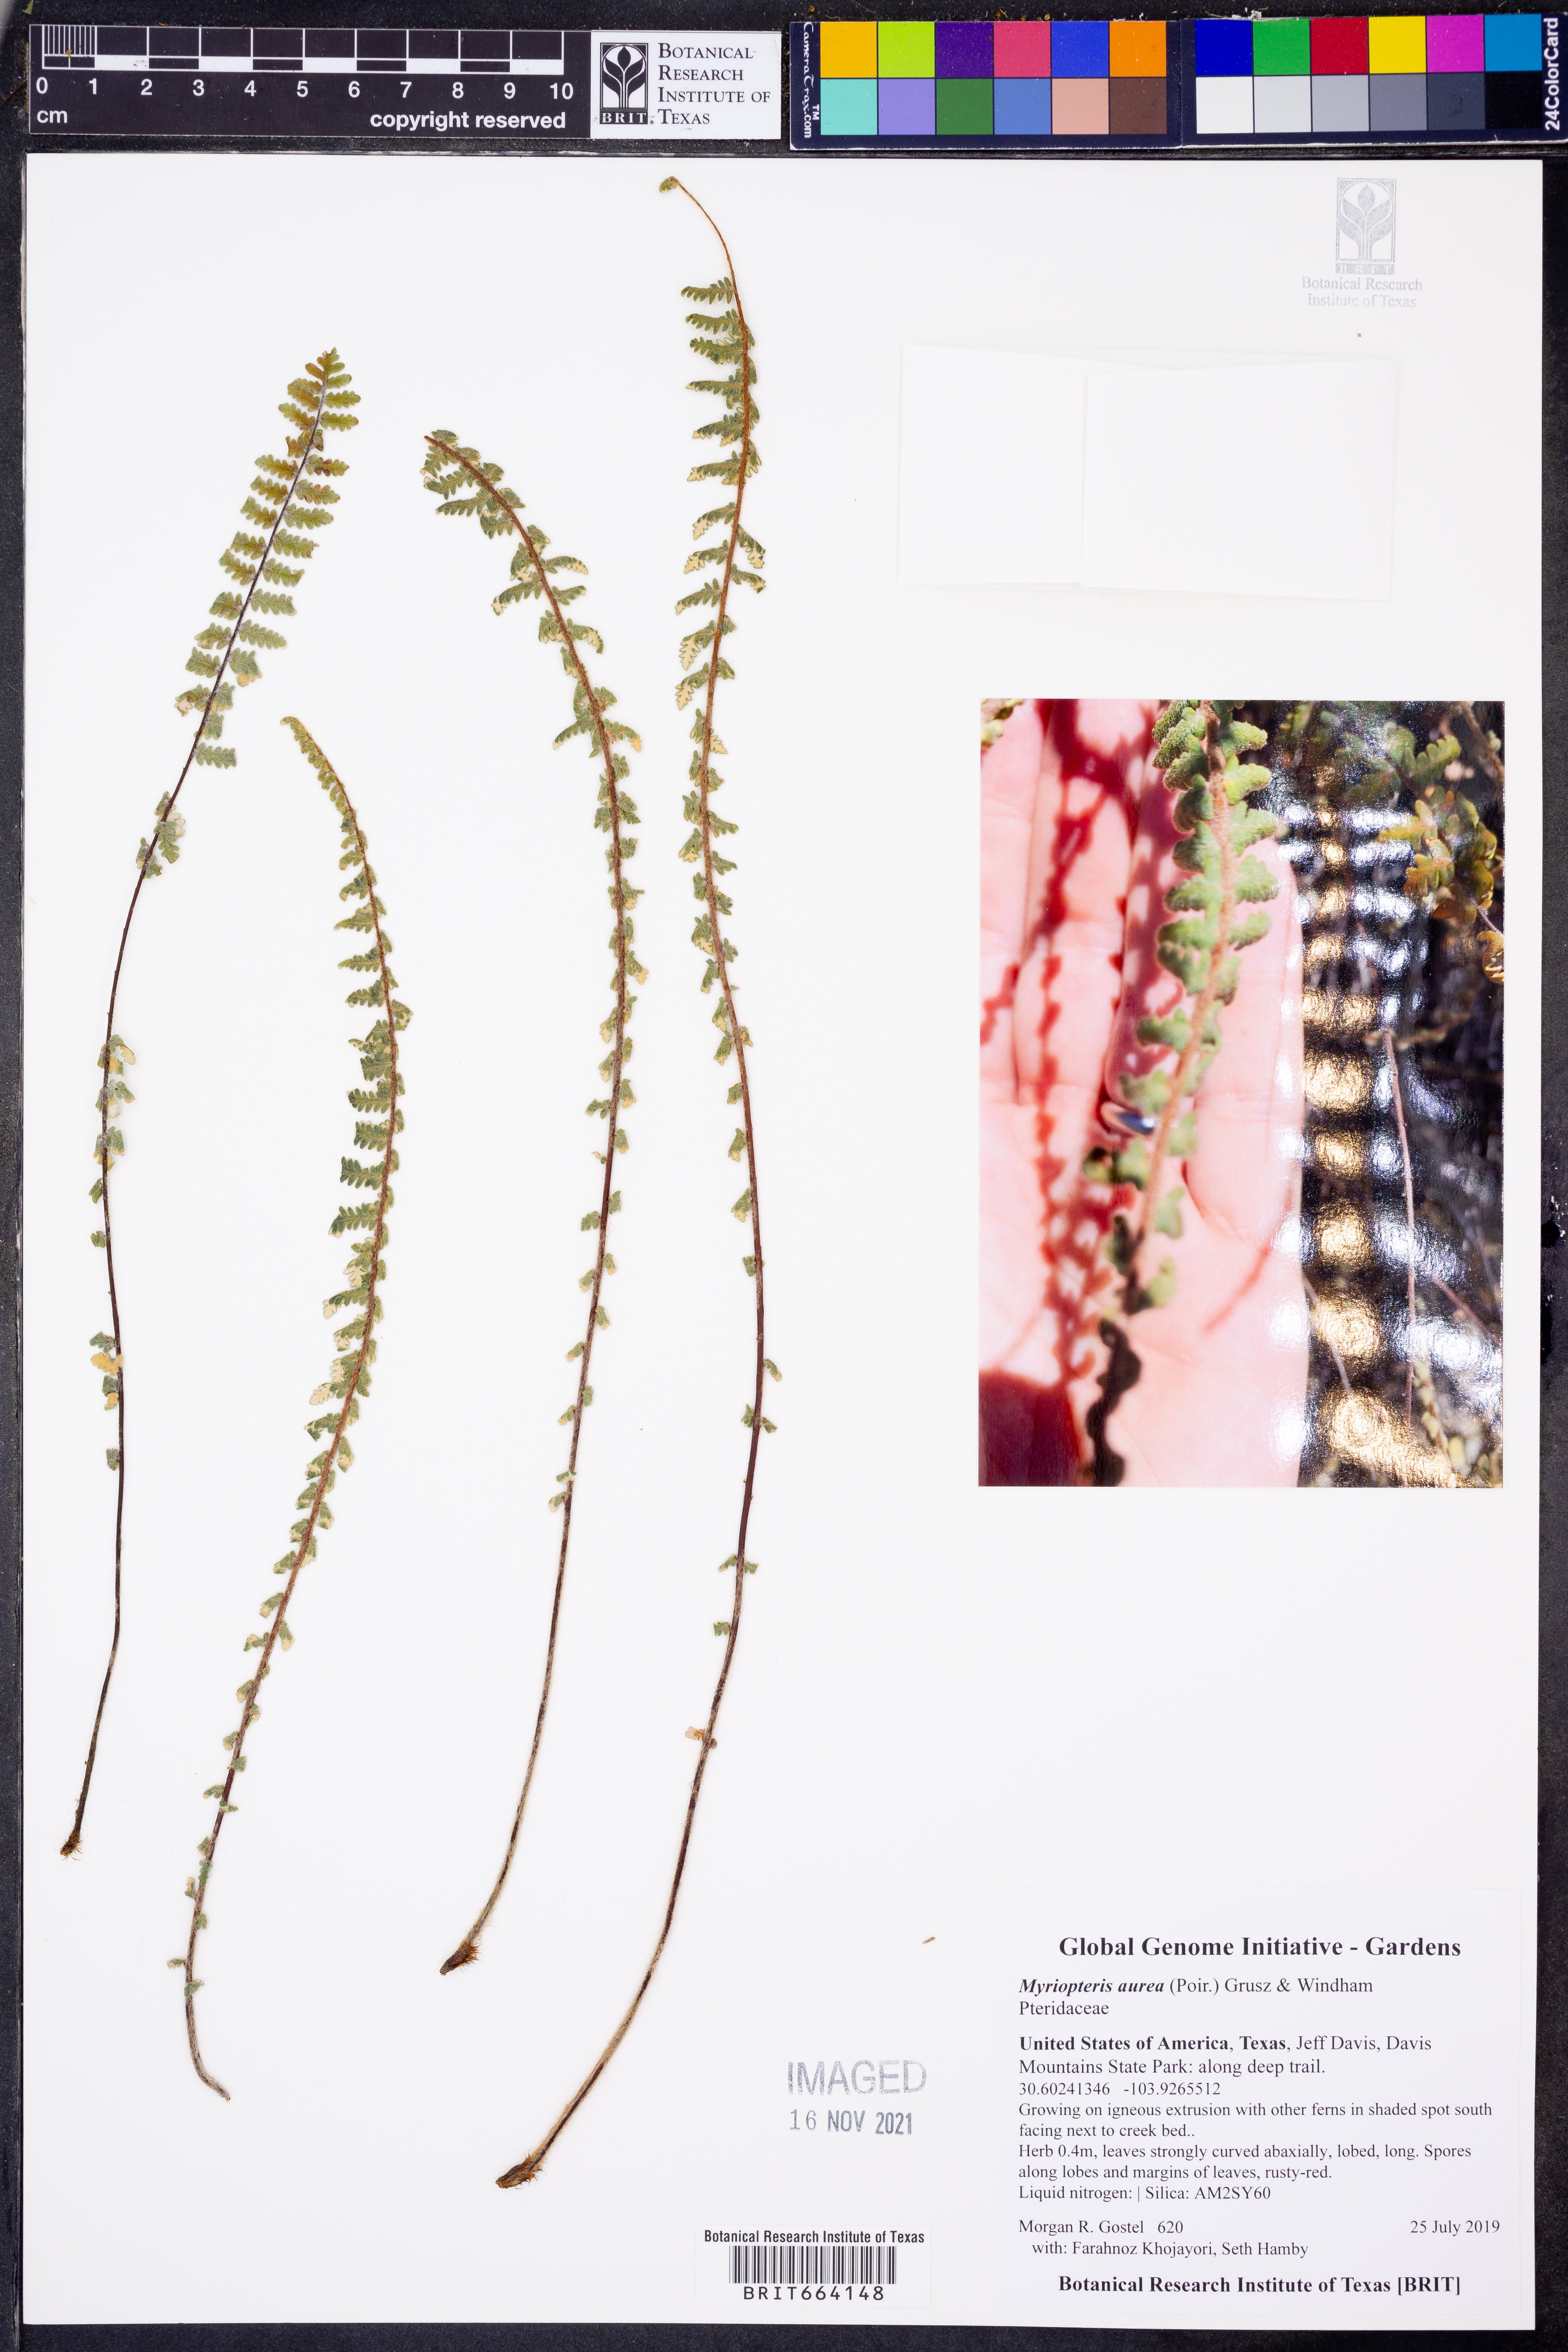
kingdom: Plantae
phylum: Tracheophyta
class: Polypodiopsida
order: Polypodiales
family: Pteridaceae
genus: Myriopteris
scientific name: Myriopteris aurea
